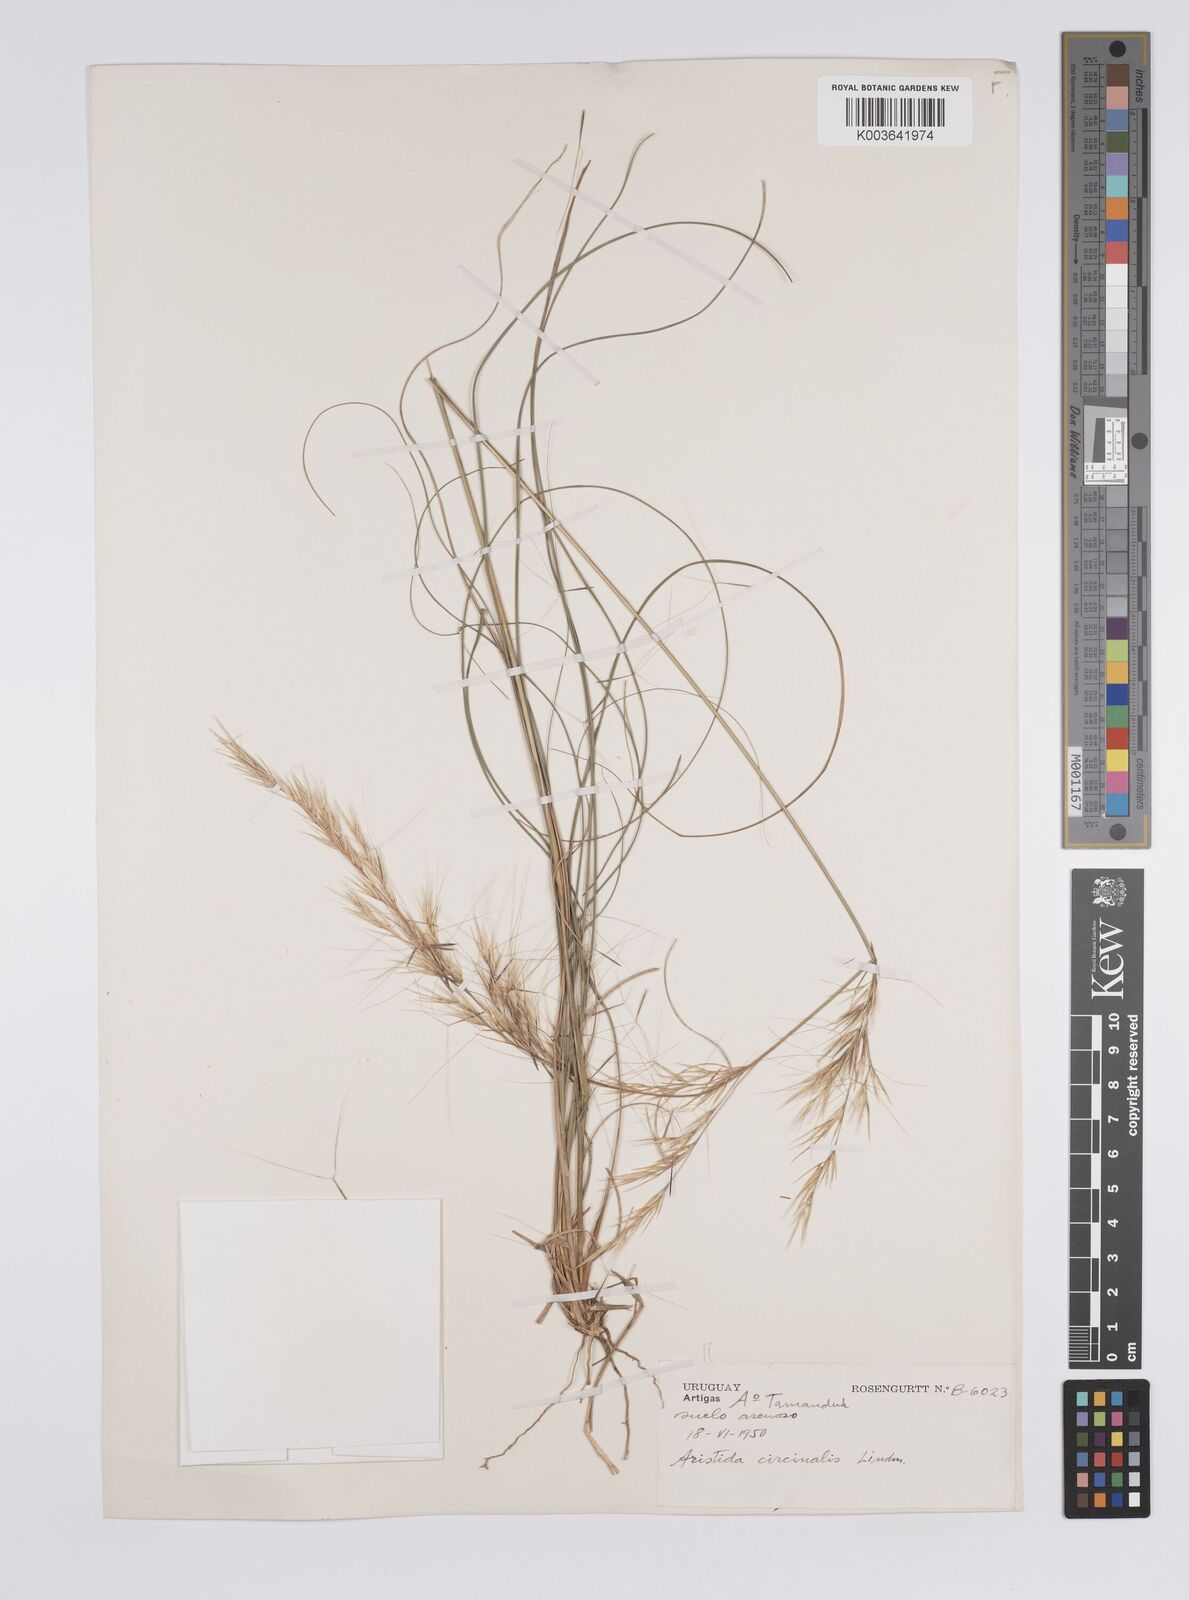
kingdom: Plantae
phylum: Tracheophyta
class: Liliopsida
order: Poales
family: Poaceae
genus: Aristida
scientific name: Aristida circinalis
